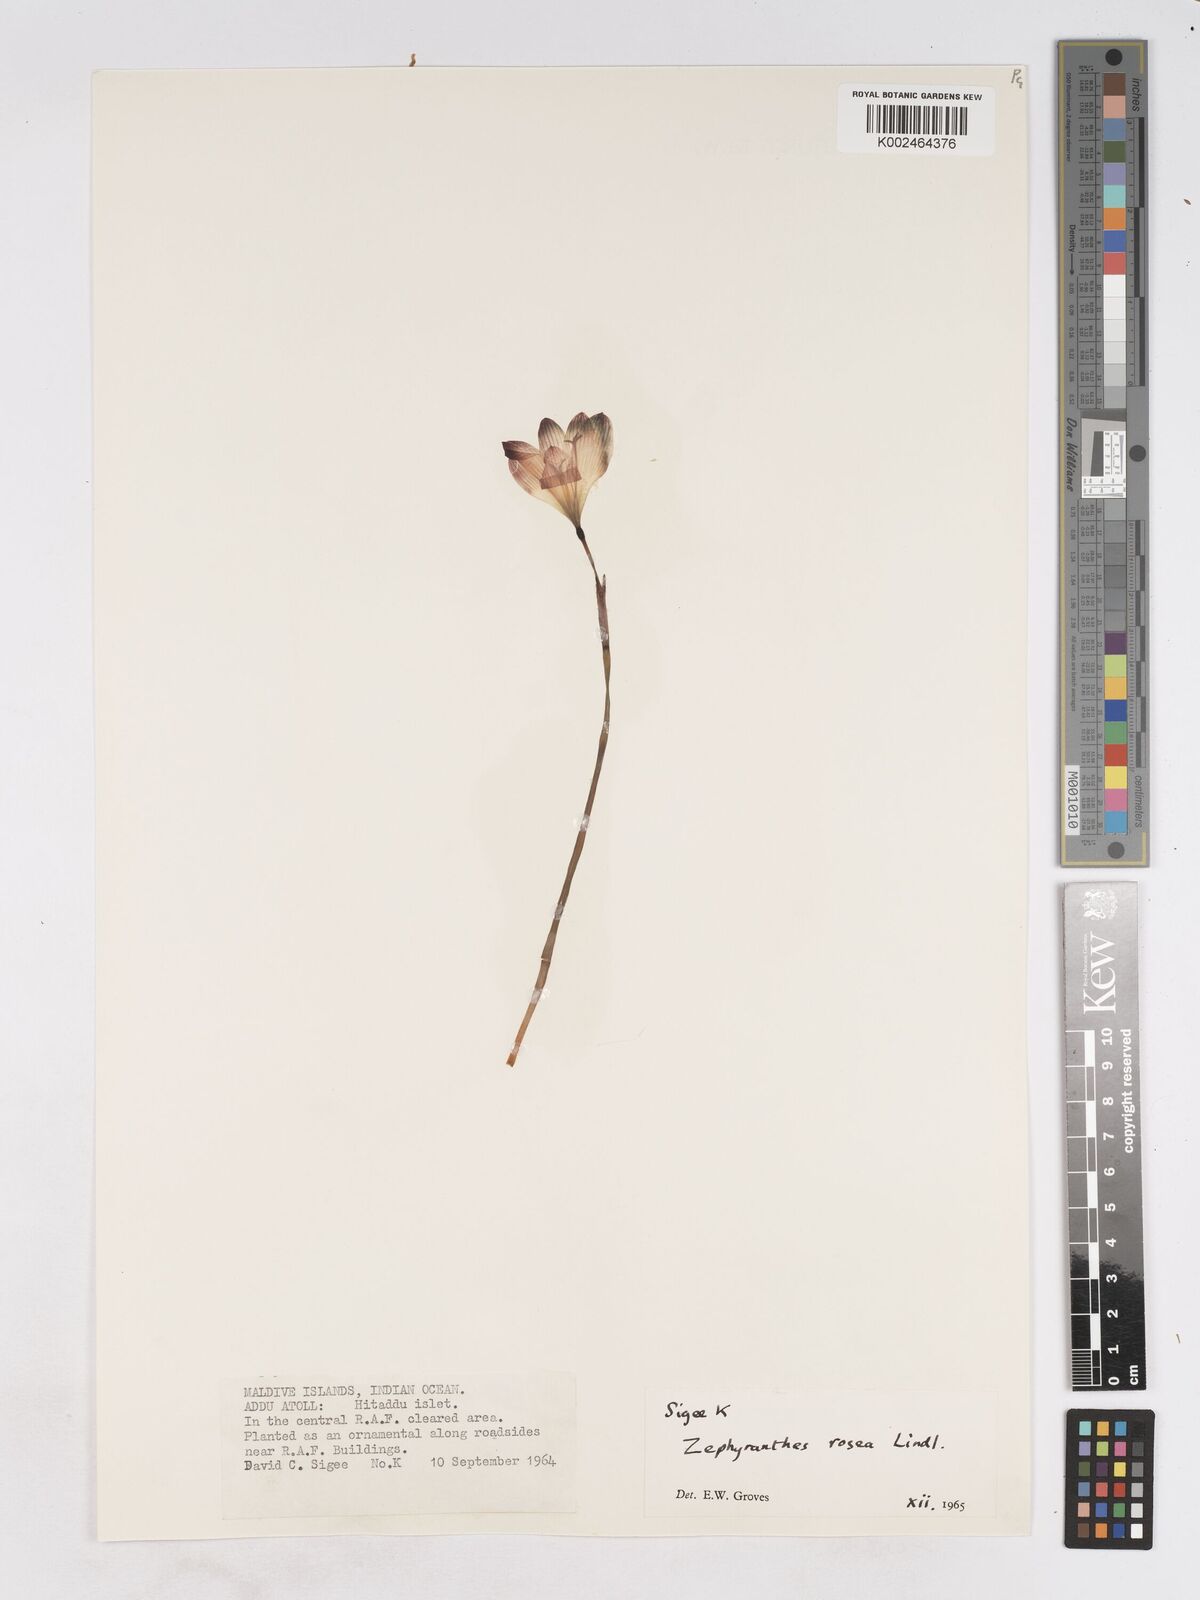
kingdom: Plantae
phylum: Tracheophyta
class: Liliopsida
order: Asparagales
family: Amaryllidaceae
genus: Zephyranthes
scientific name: Zephyranthes rosea
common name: Cuban zephyrlily
